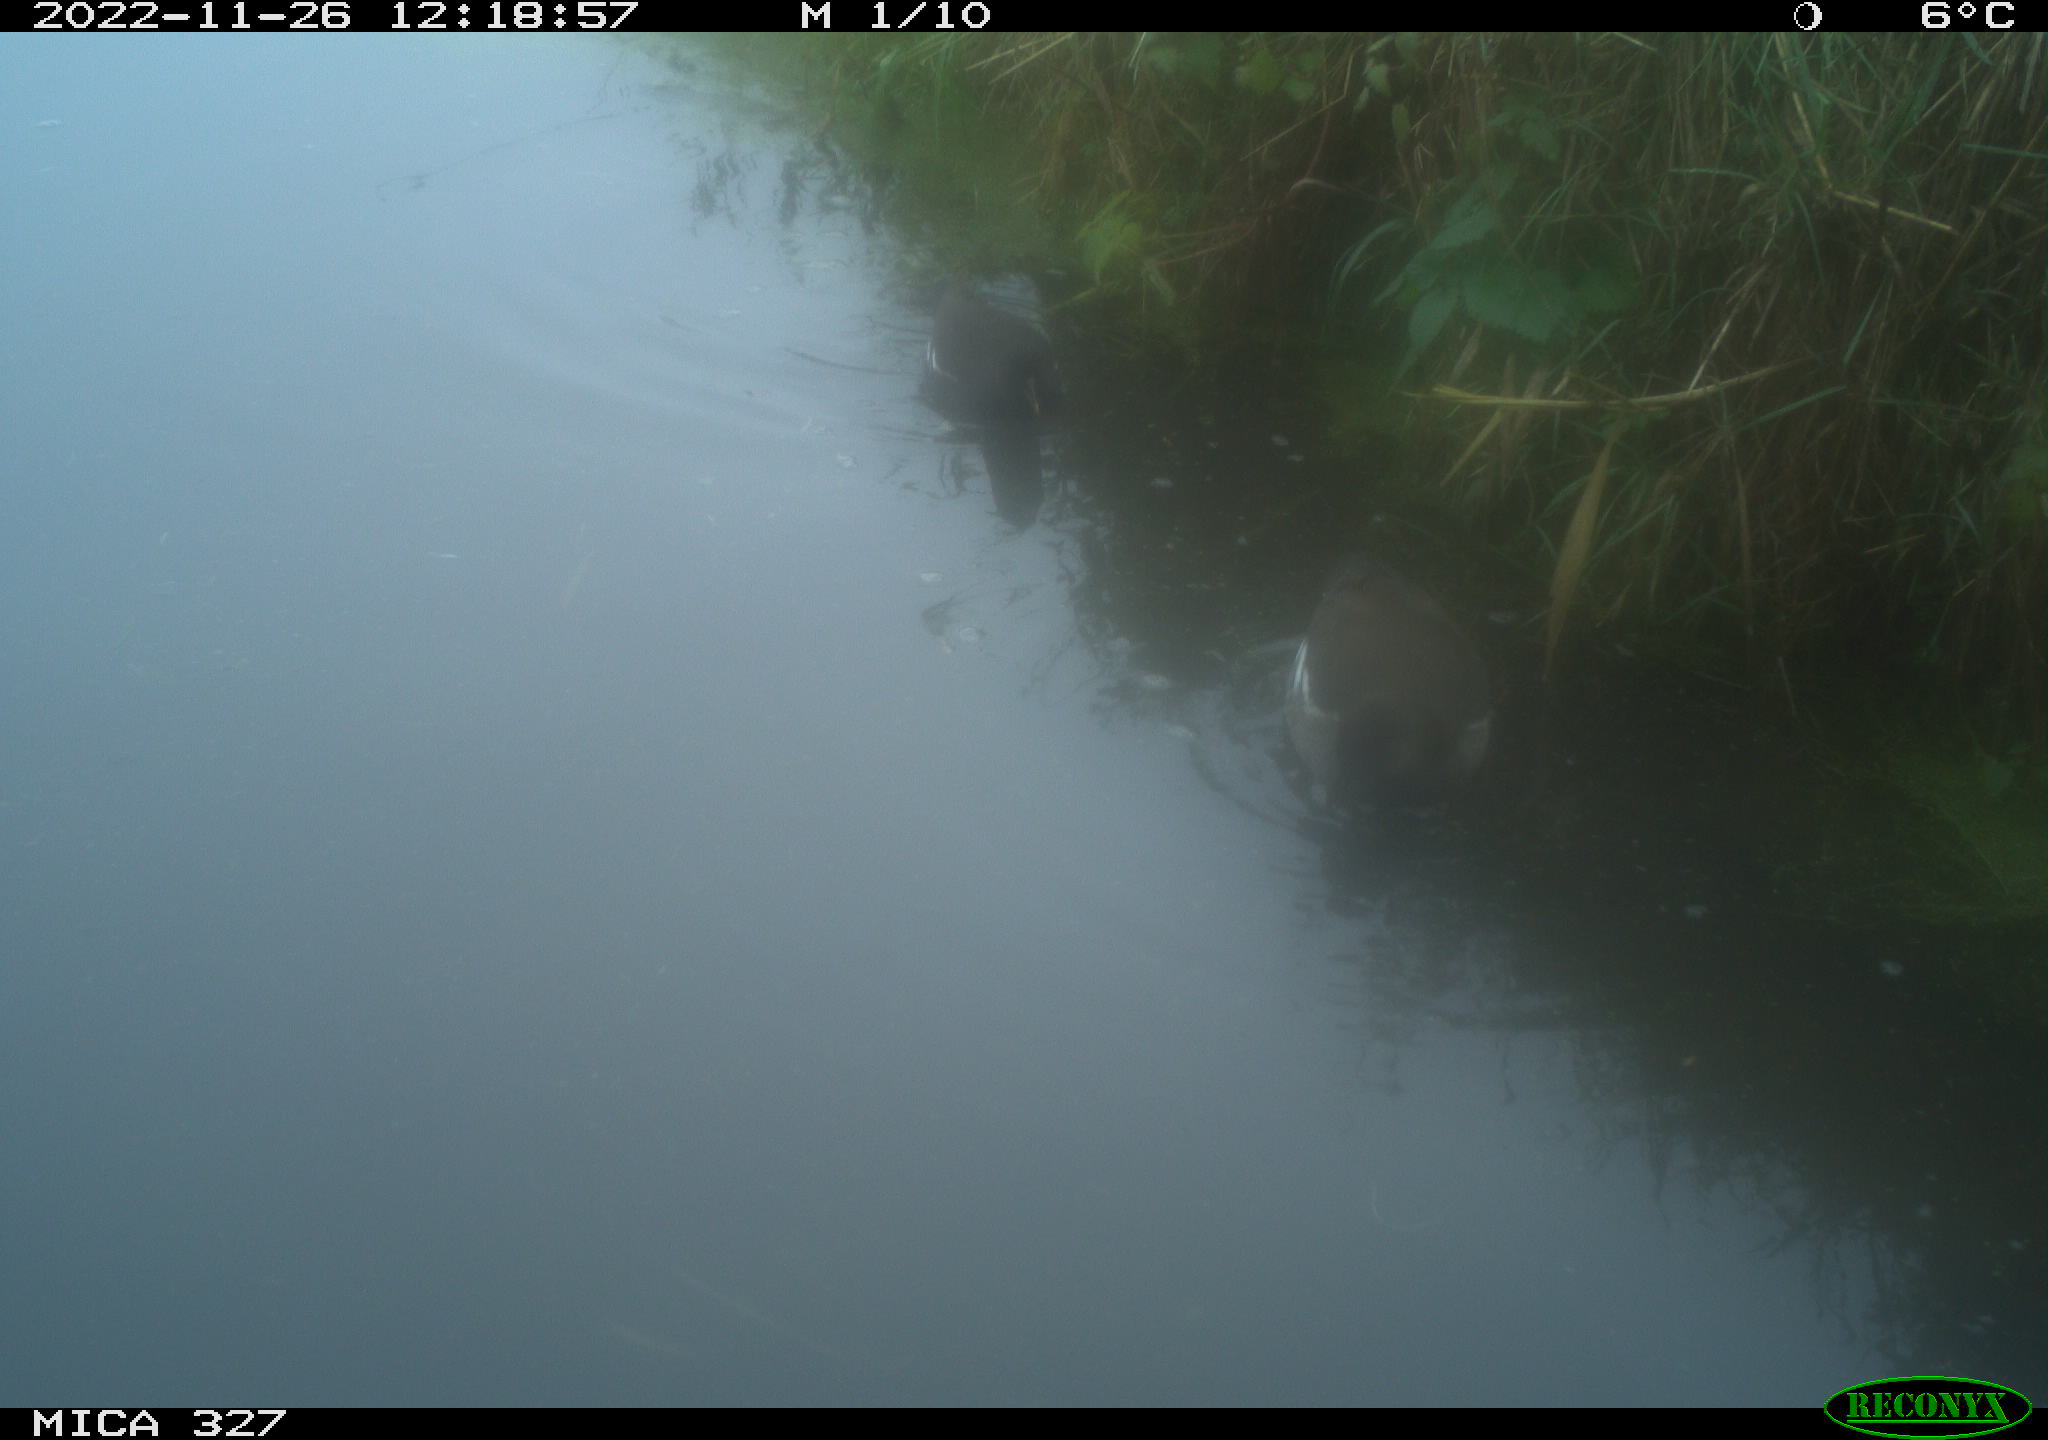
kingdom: Animalia
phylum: Chordata
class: Aves
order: Gruiformes
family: Rallidae
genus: Gallinula
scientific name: Gallinula chloropus
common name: Common moorhen
